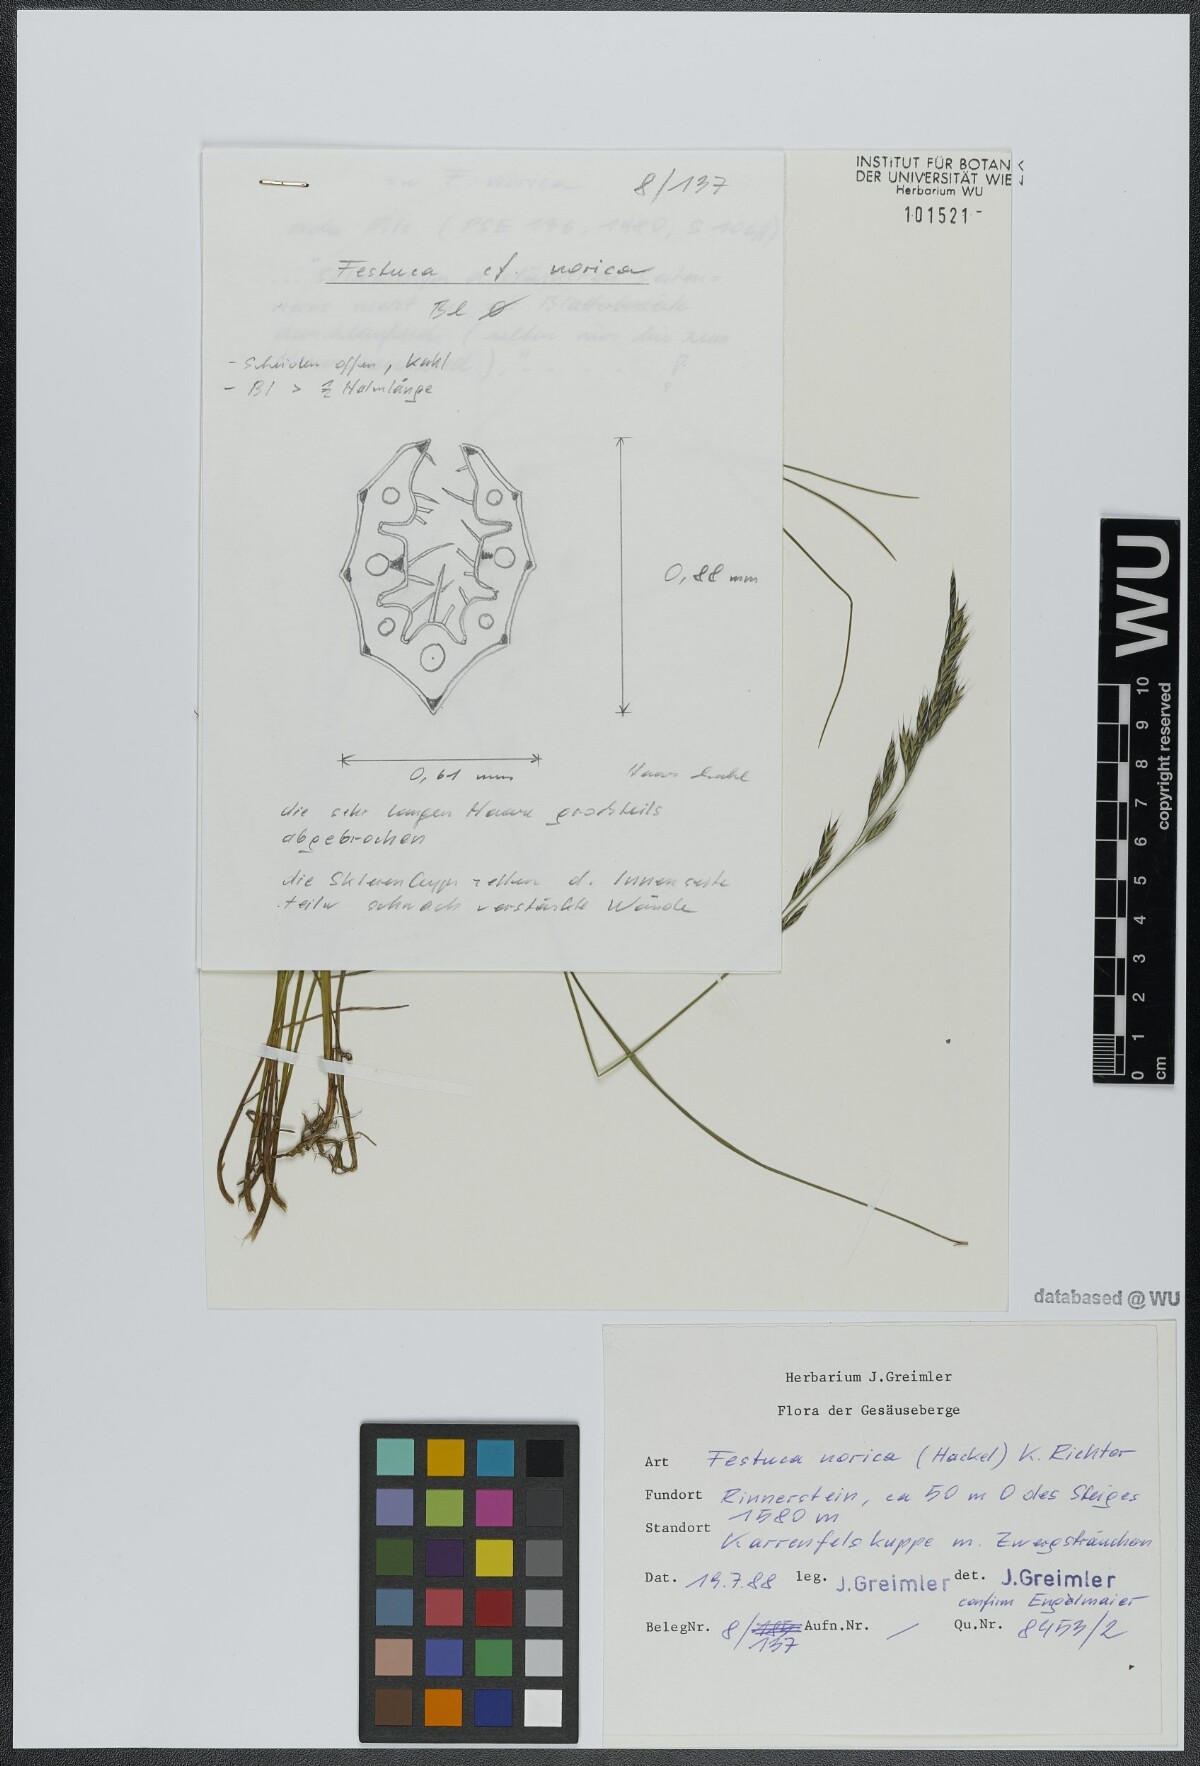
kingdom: Plantae
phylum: Tracheophyta
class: Liliopsida
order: Poales
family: Poaceae
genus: Festuca
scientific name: Festuca norica
